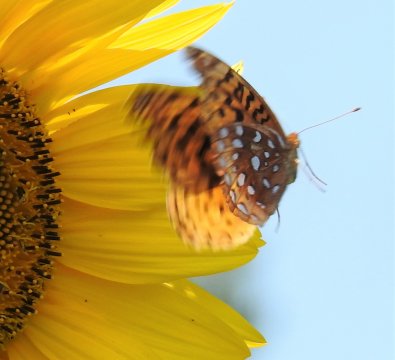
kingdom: Animalia
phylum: Arthropoda
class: Insecta
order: Lepidoptera
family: Nymphalidae
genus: Speyeria
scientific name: Speyeria cybele
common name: Great Spangled Fritillary
